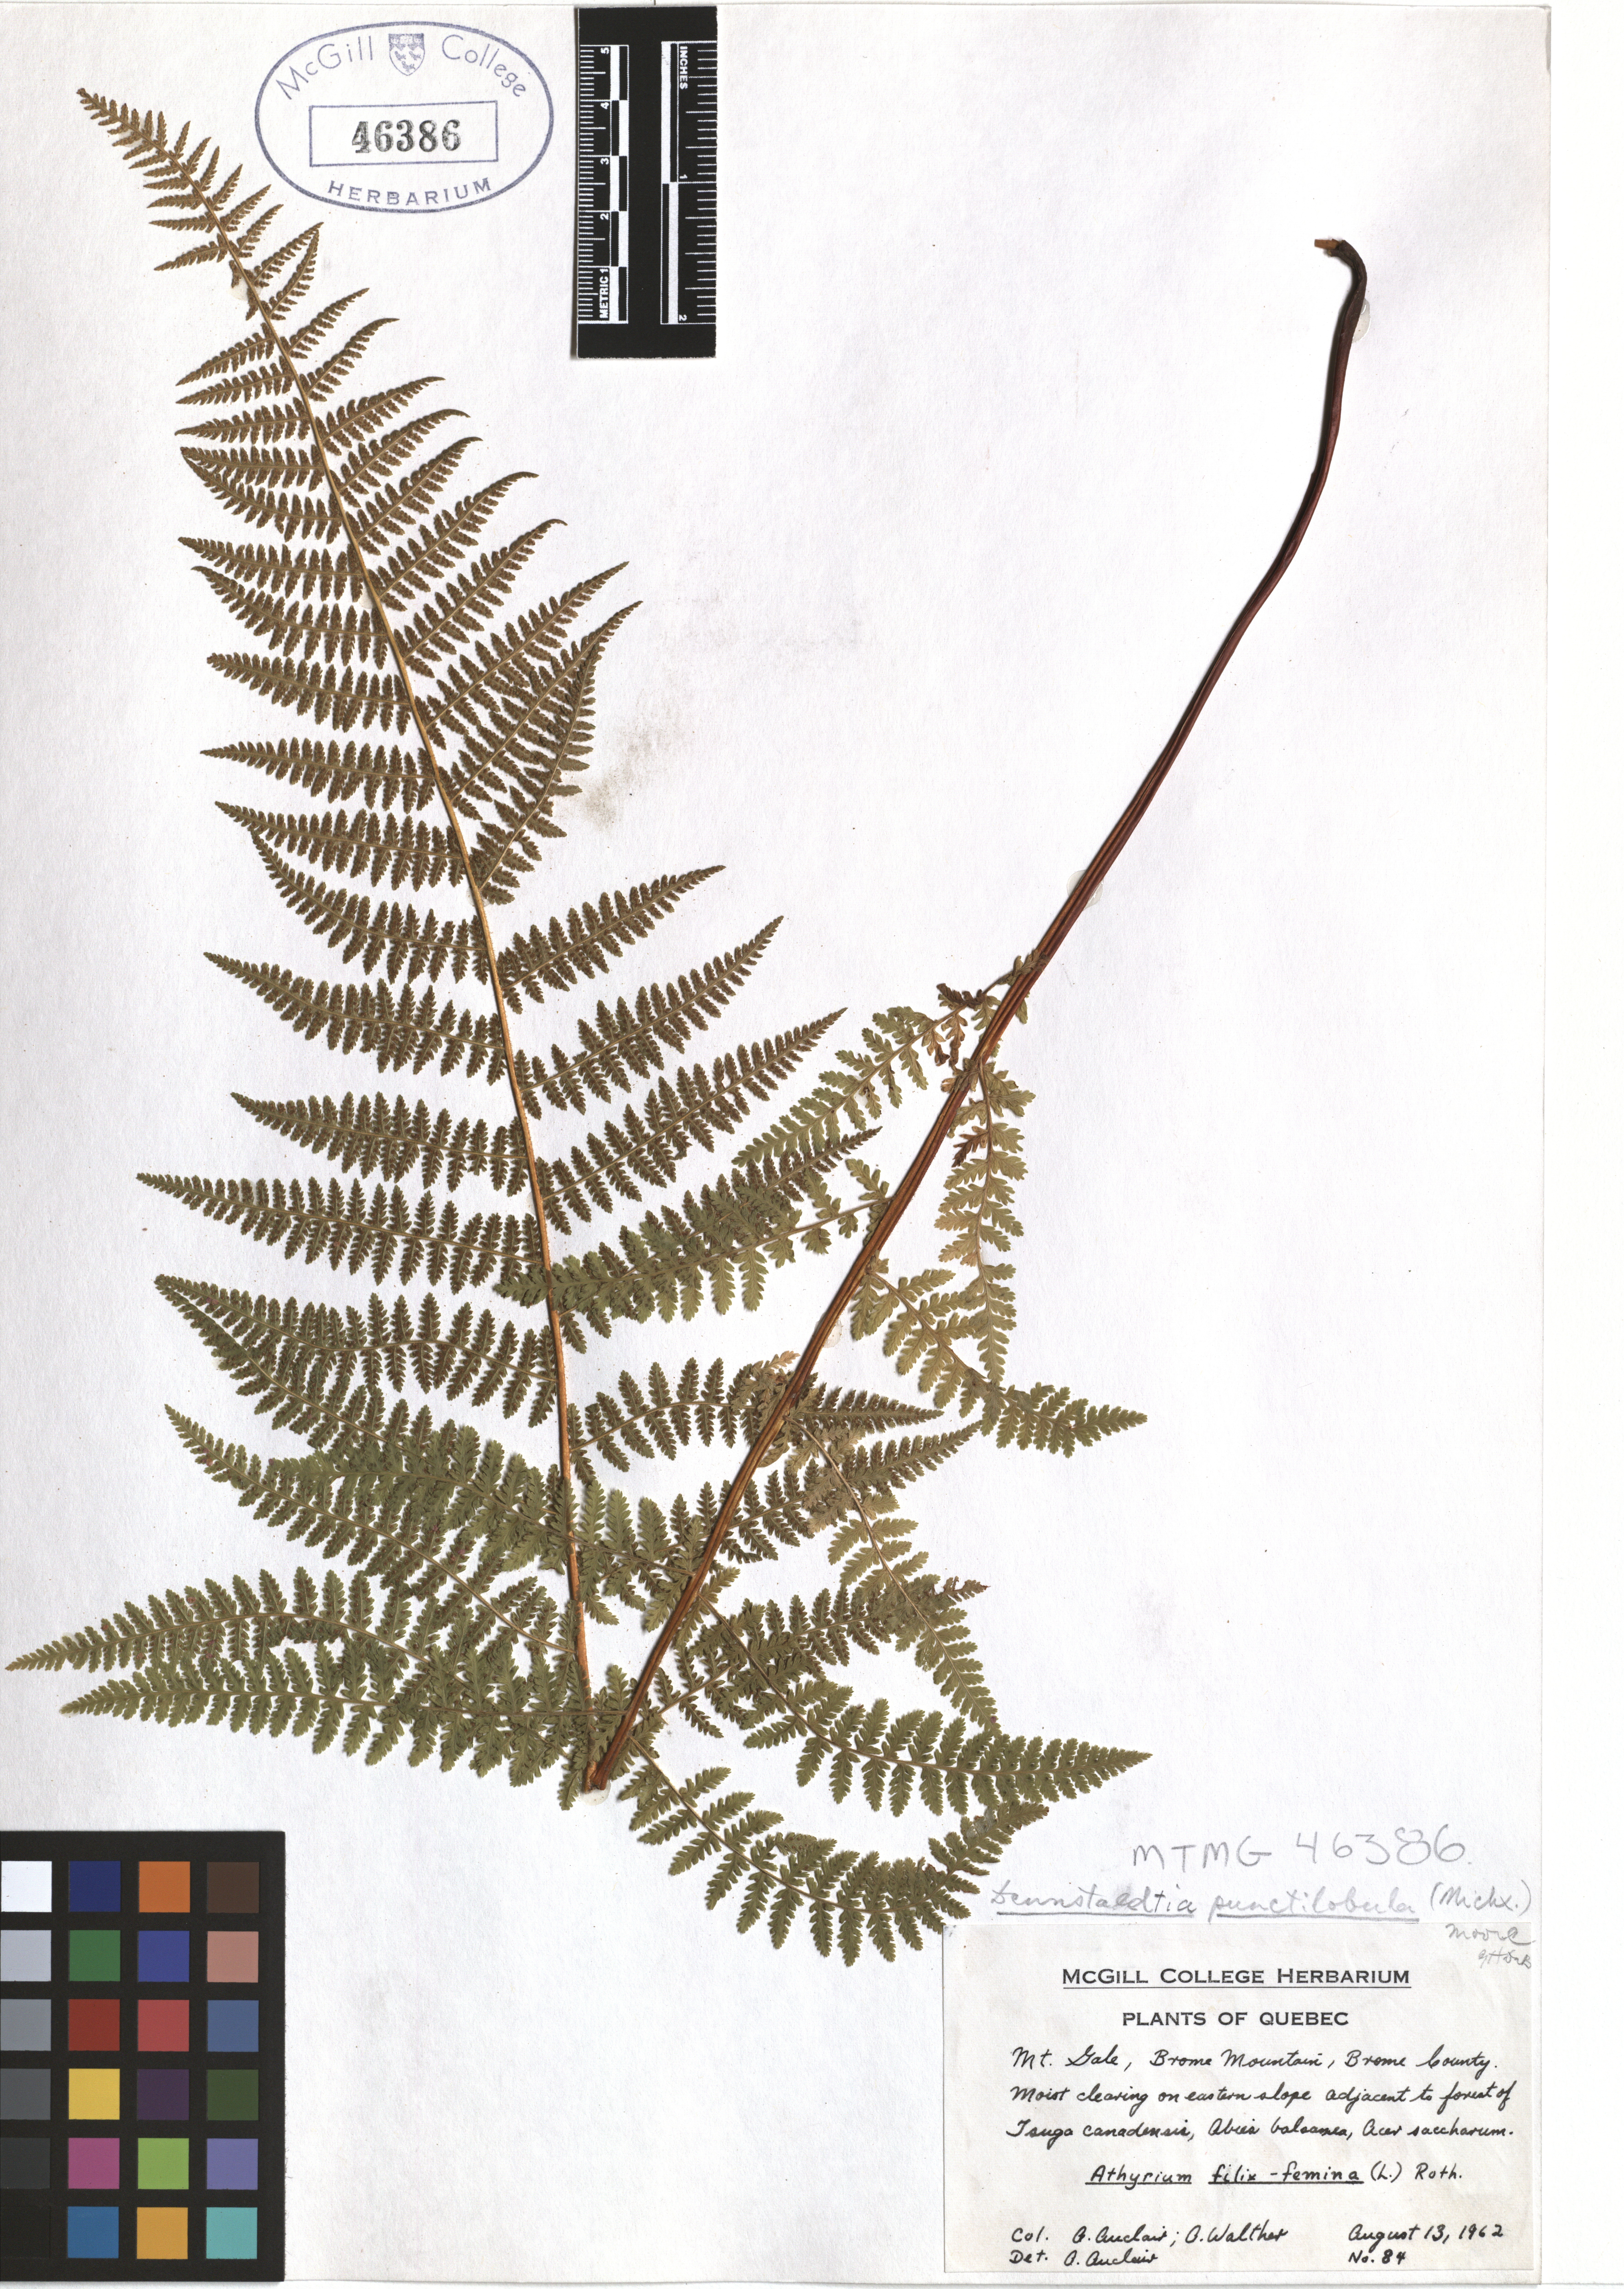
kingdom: Plantae
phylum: Tracheophyta
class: Polypodiopsida
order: Polypodiales
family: Dennstaedtiaceae
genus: Sitobolium
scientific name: Sitobolium punctilobum
